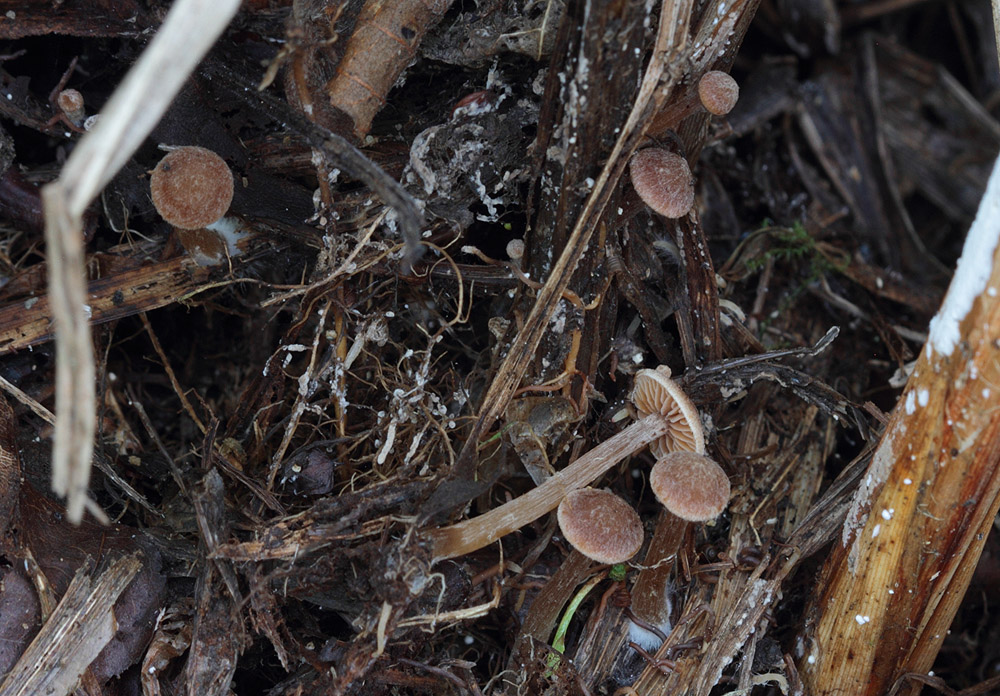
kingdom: Fungi
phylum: Basidiomycota
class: Agaricomycetes
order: Agaricales
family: Hymenogastraceae
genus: Naucoria
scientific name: Naucoria subconspersa
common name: filtet knaphat
